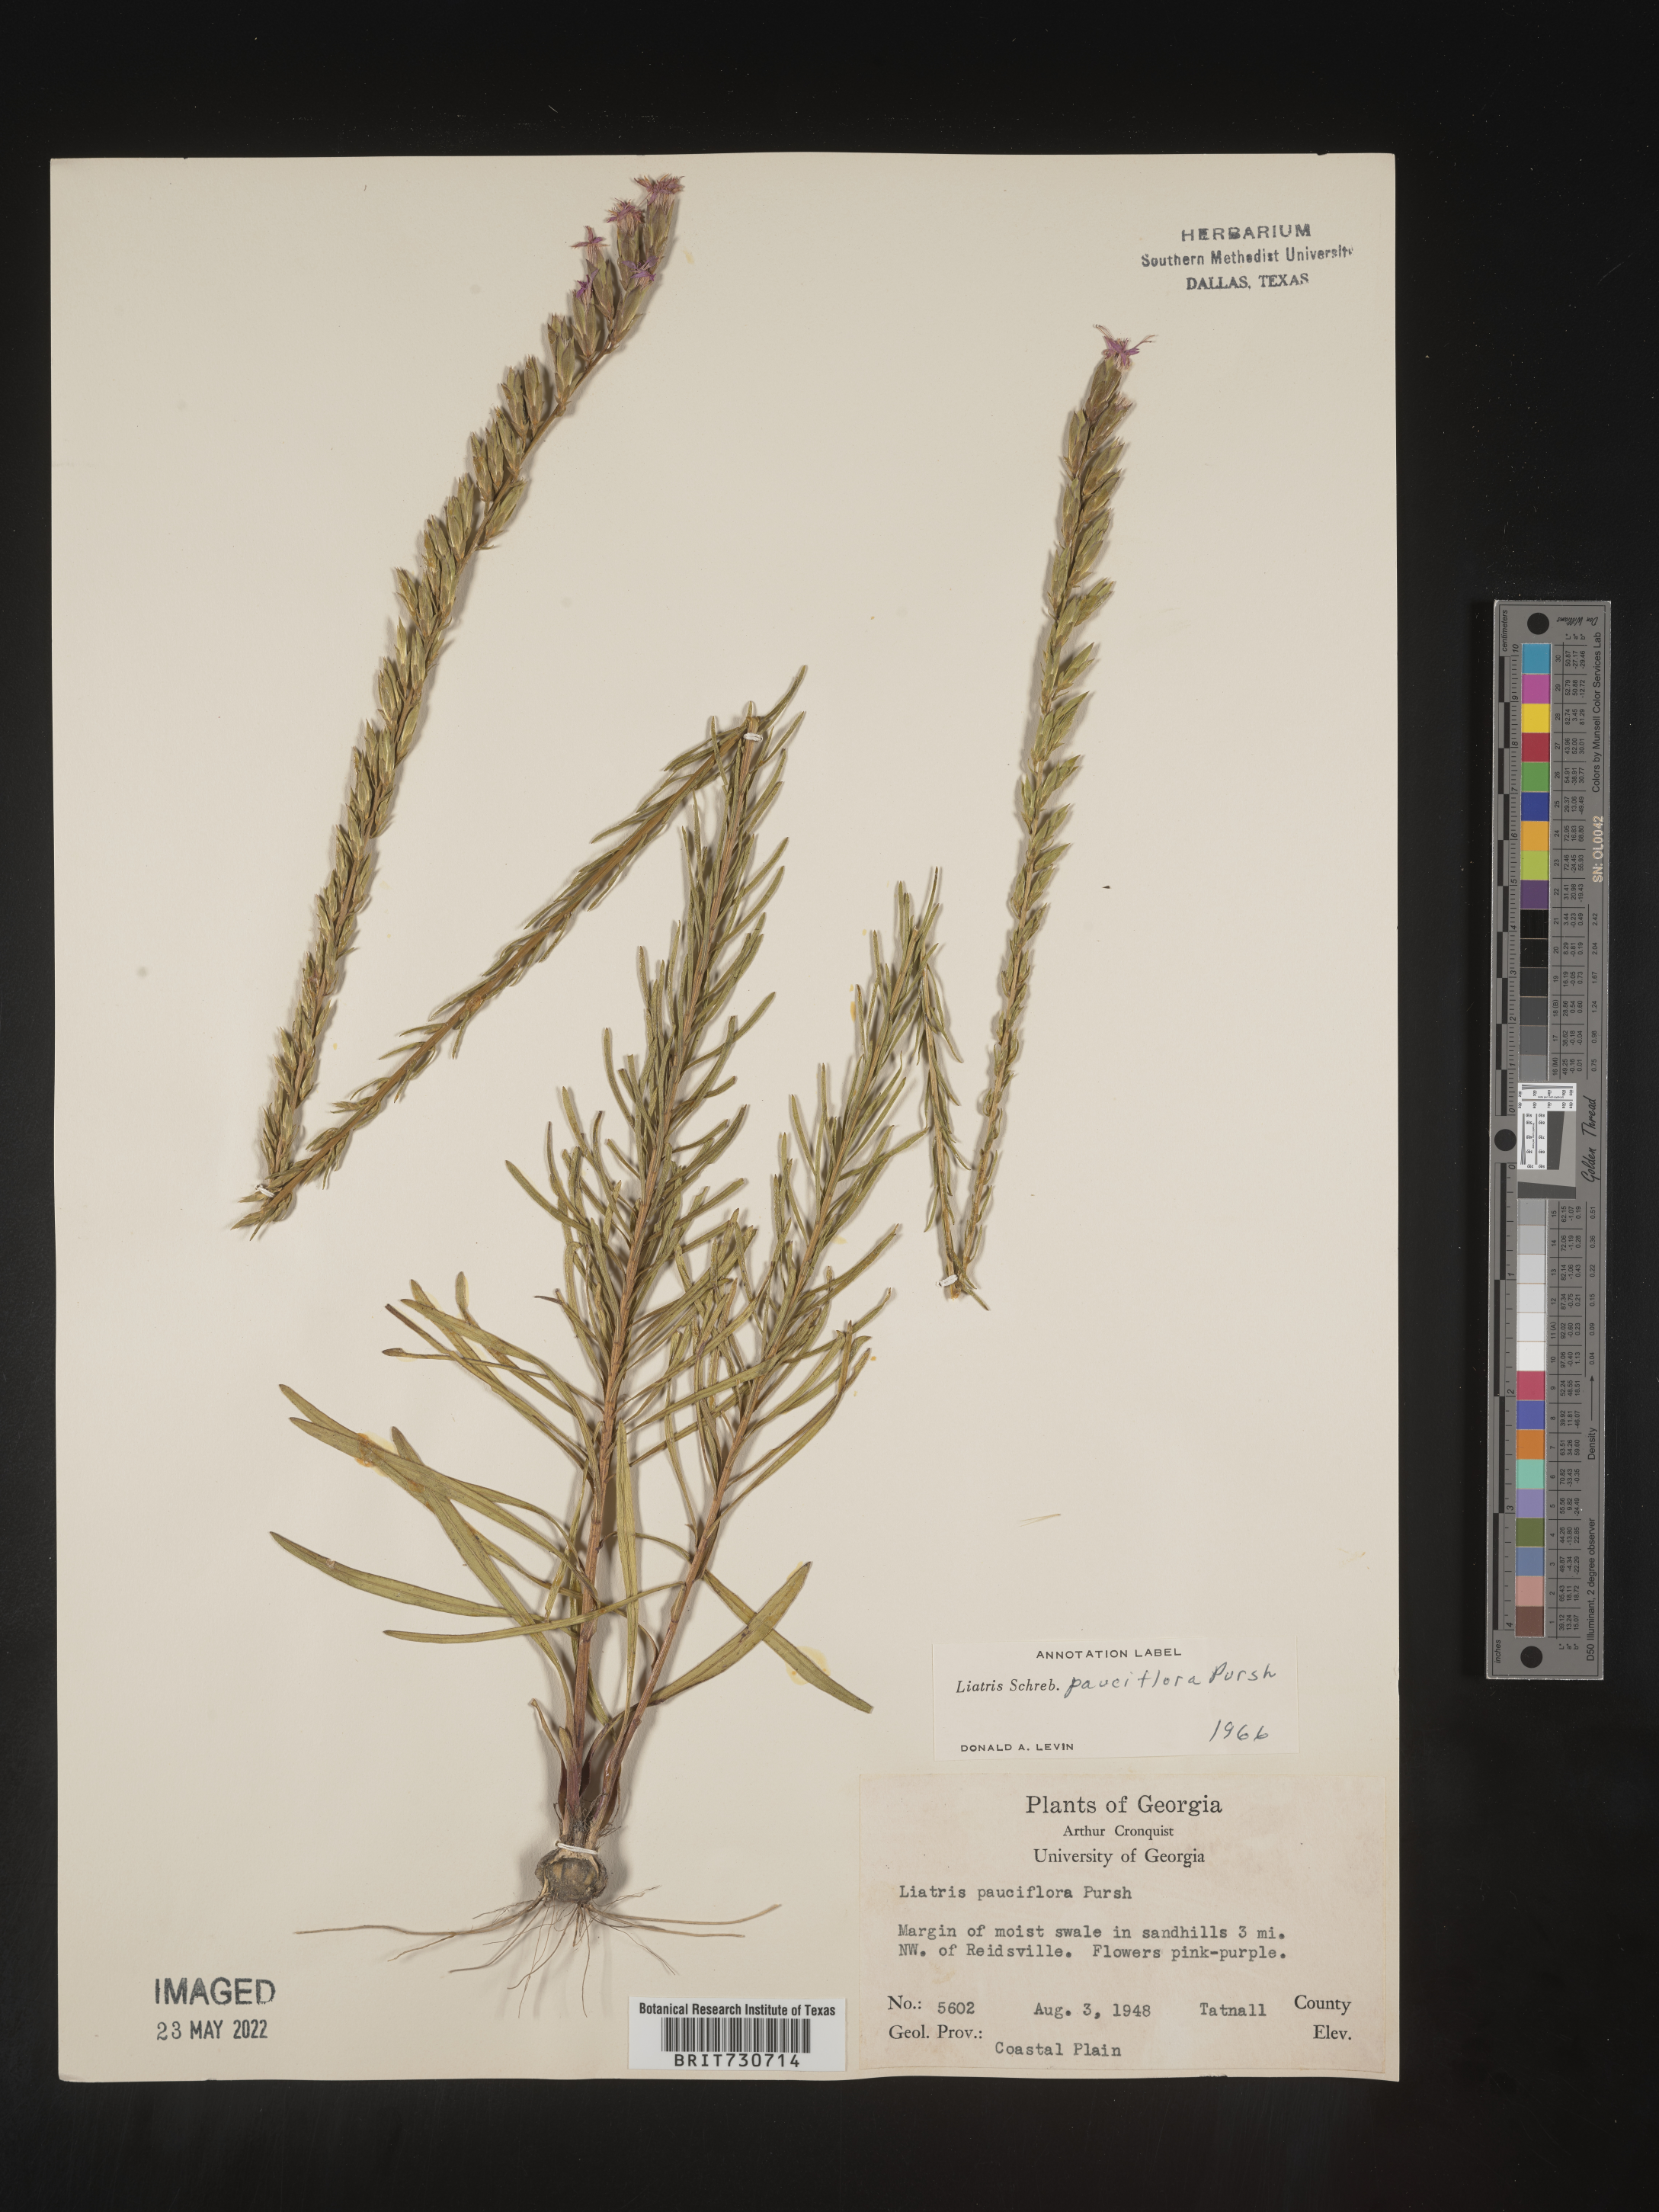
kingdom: Plantae
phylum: Tracheophyta
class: Magnoliopsida
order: Asterales
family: Asteraceae
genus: Liatris
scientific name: Liatris pauciflora
